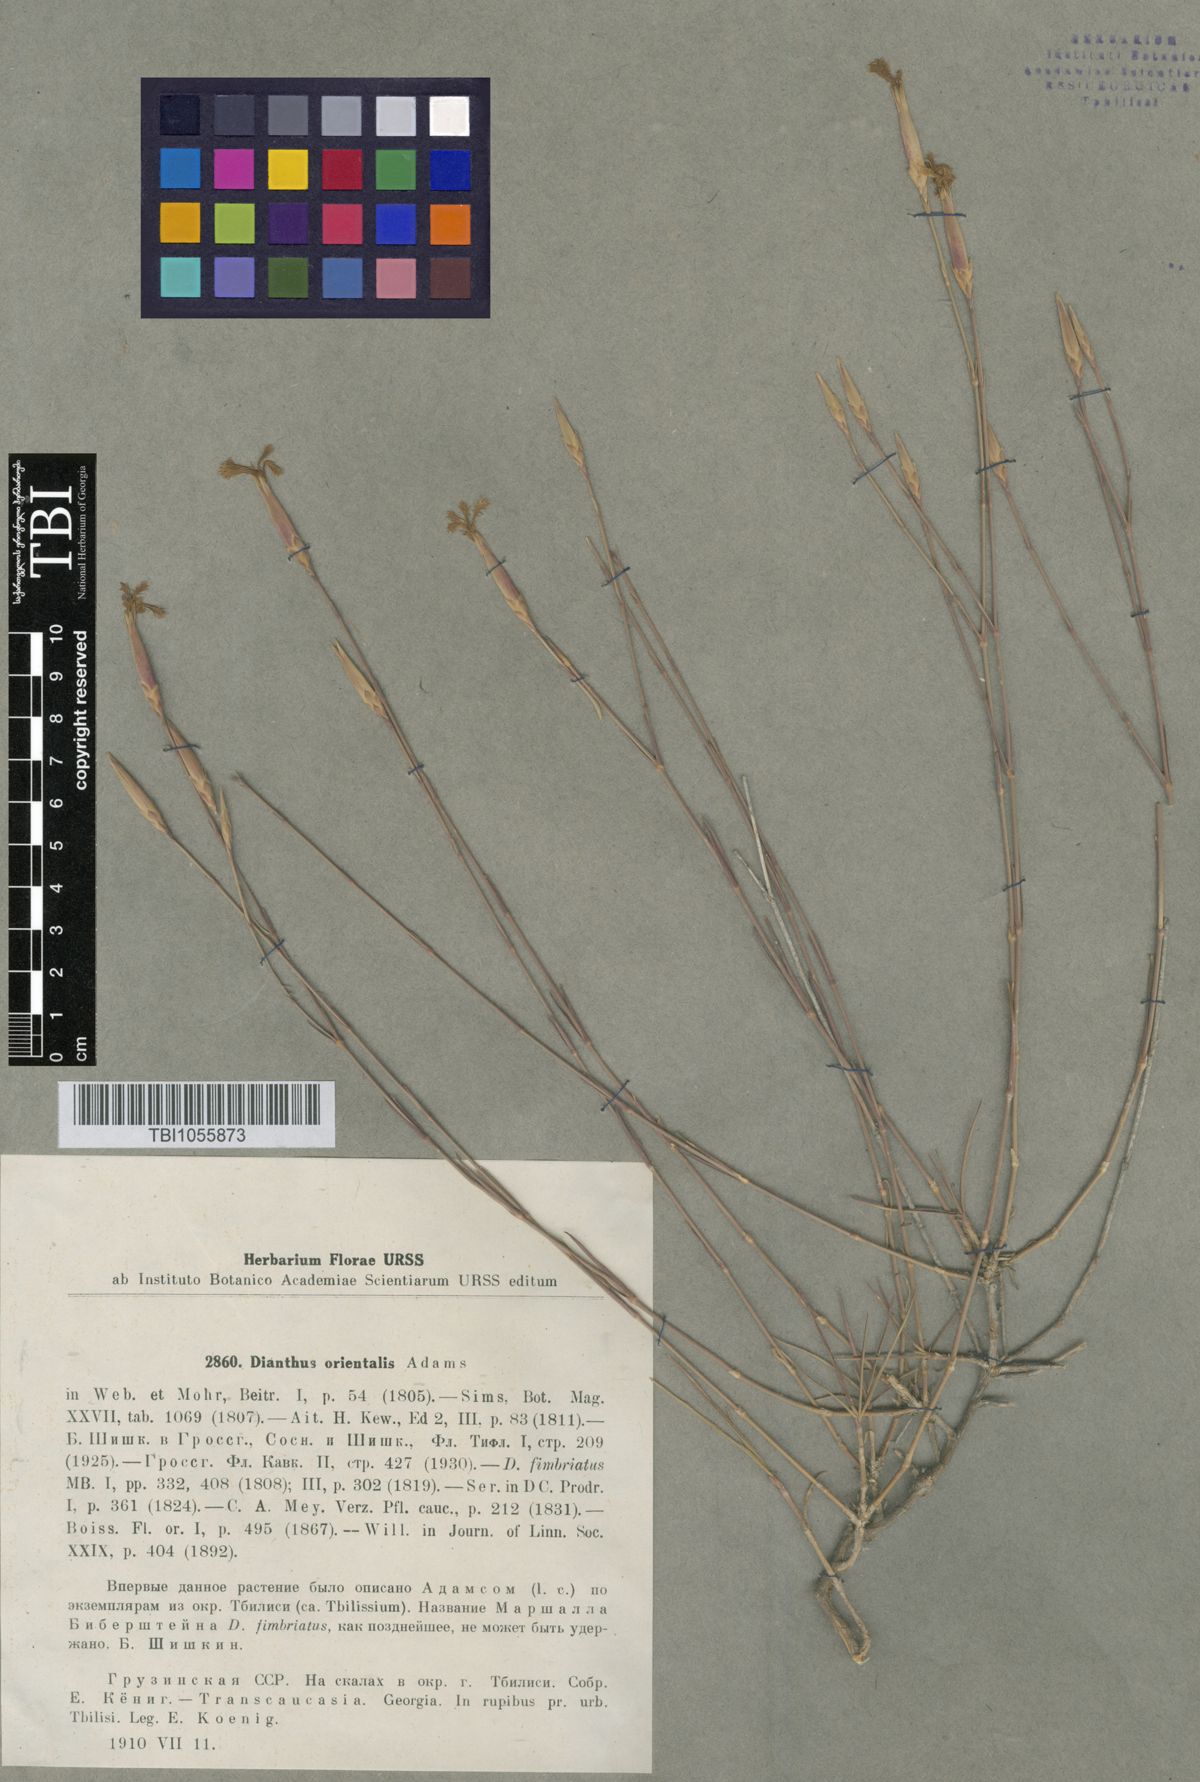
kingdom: Plantae
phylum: Tracheophyta
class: Magnoliopsida
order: Caryophyllales
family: Caryophyllaceae
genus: Dianthus
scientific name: Dianthus orientalis
